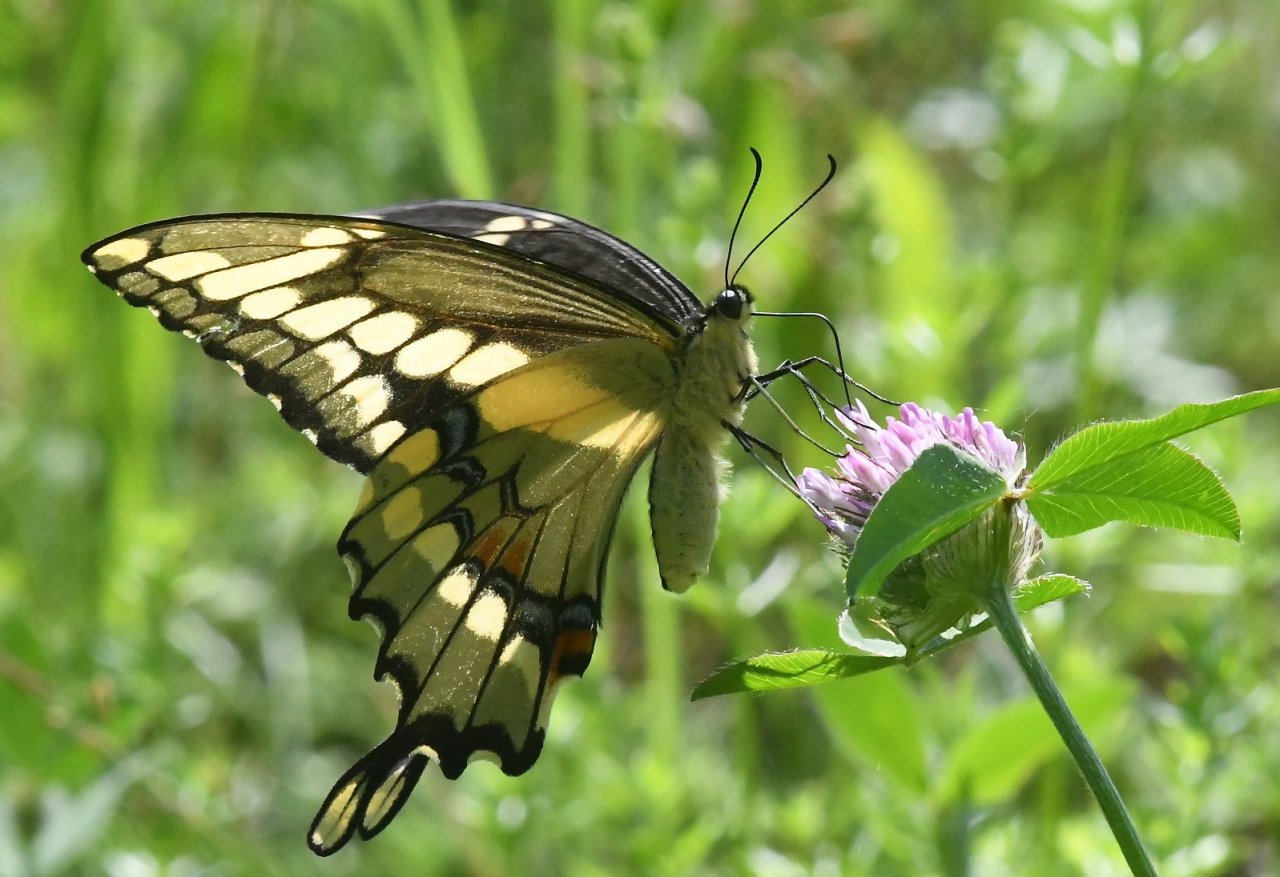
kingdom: Animalia
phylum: Arthropoda
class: Insecta
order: Lepidoptera
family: Papilionidae
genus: Papilio
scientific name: Papilio cresphontes
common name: Eastern Giant Swallowtail
